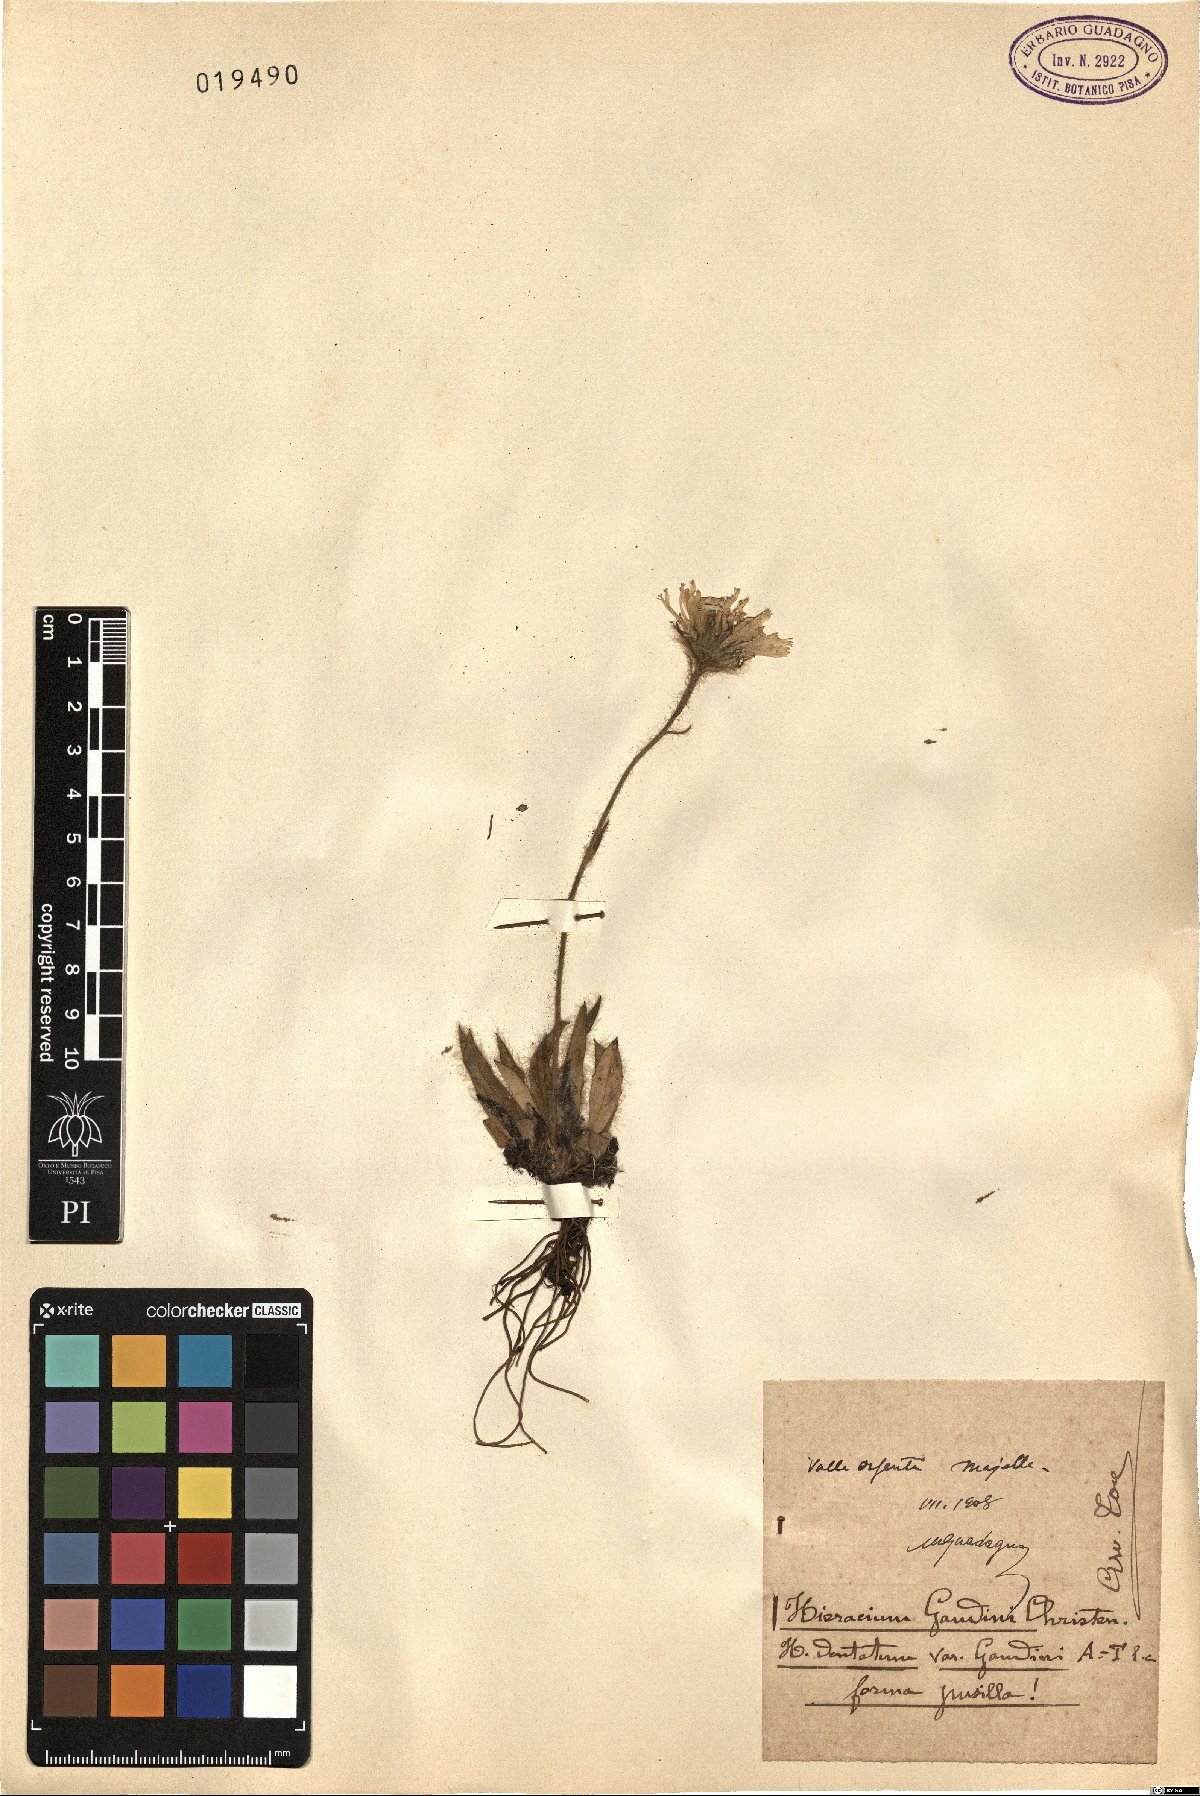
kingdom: Plantae
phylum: Tracheophyta
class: Magnoliopsida
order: Asterales
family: Asteraceae
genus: Hieracium
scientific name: Hieracium dentatum
